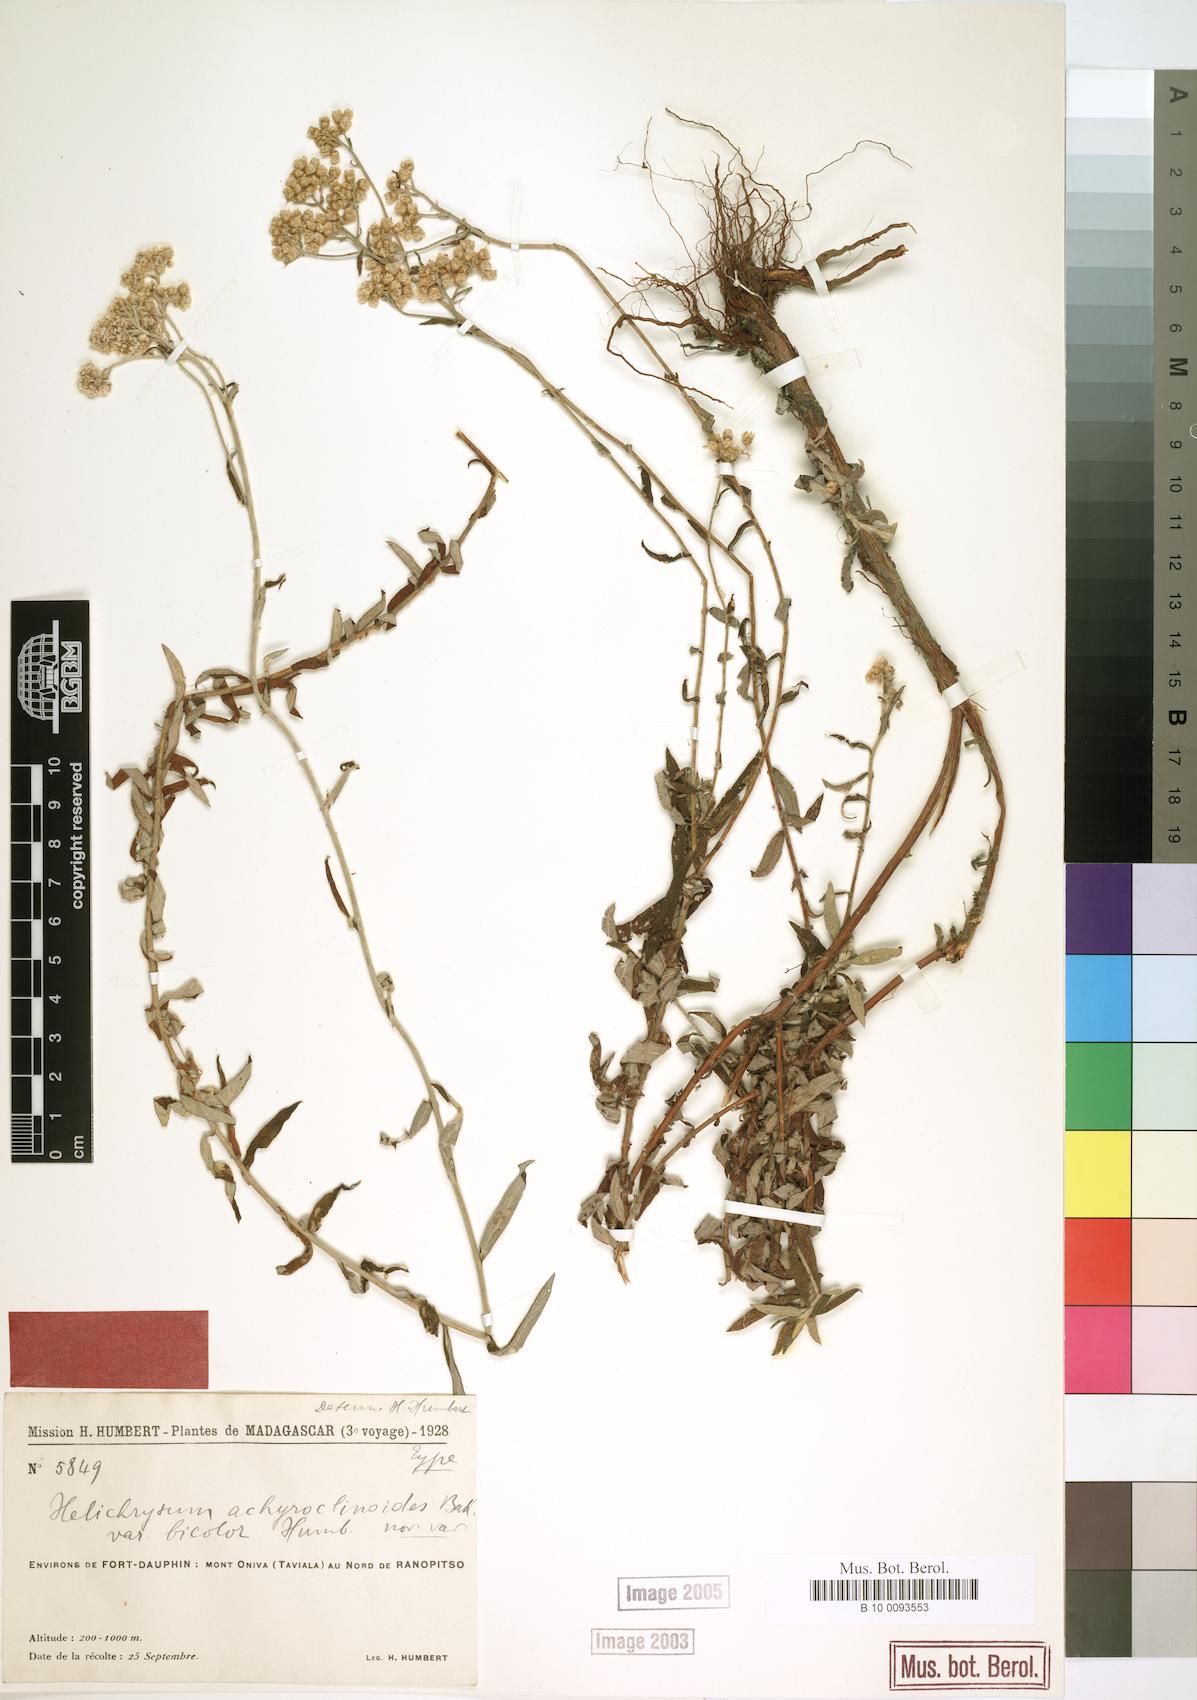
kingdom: Plantae
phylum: Tracheophyta
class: Magnoliopsida
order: Asterales
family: Asteraceae
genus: Helichrysum
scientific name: Helichrysum achyroclinoides
